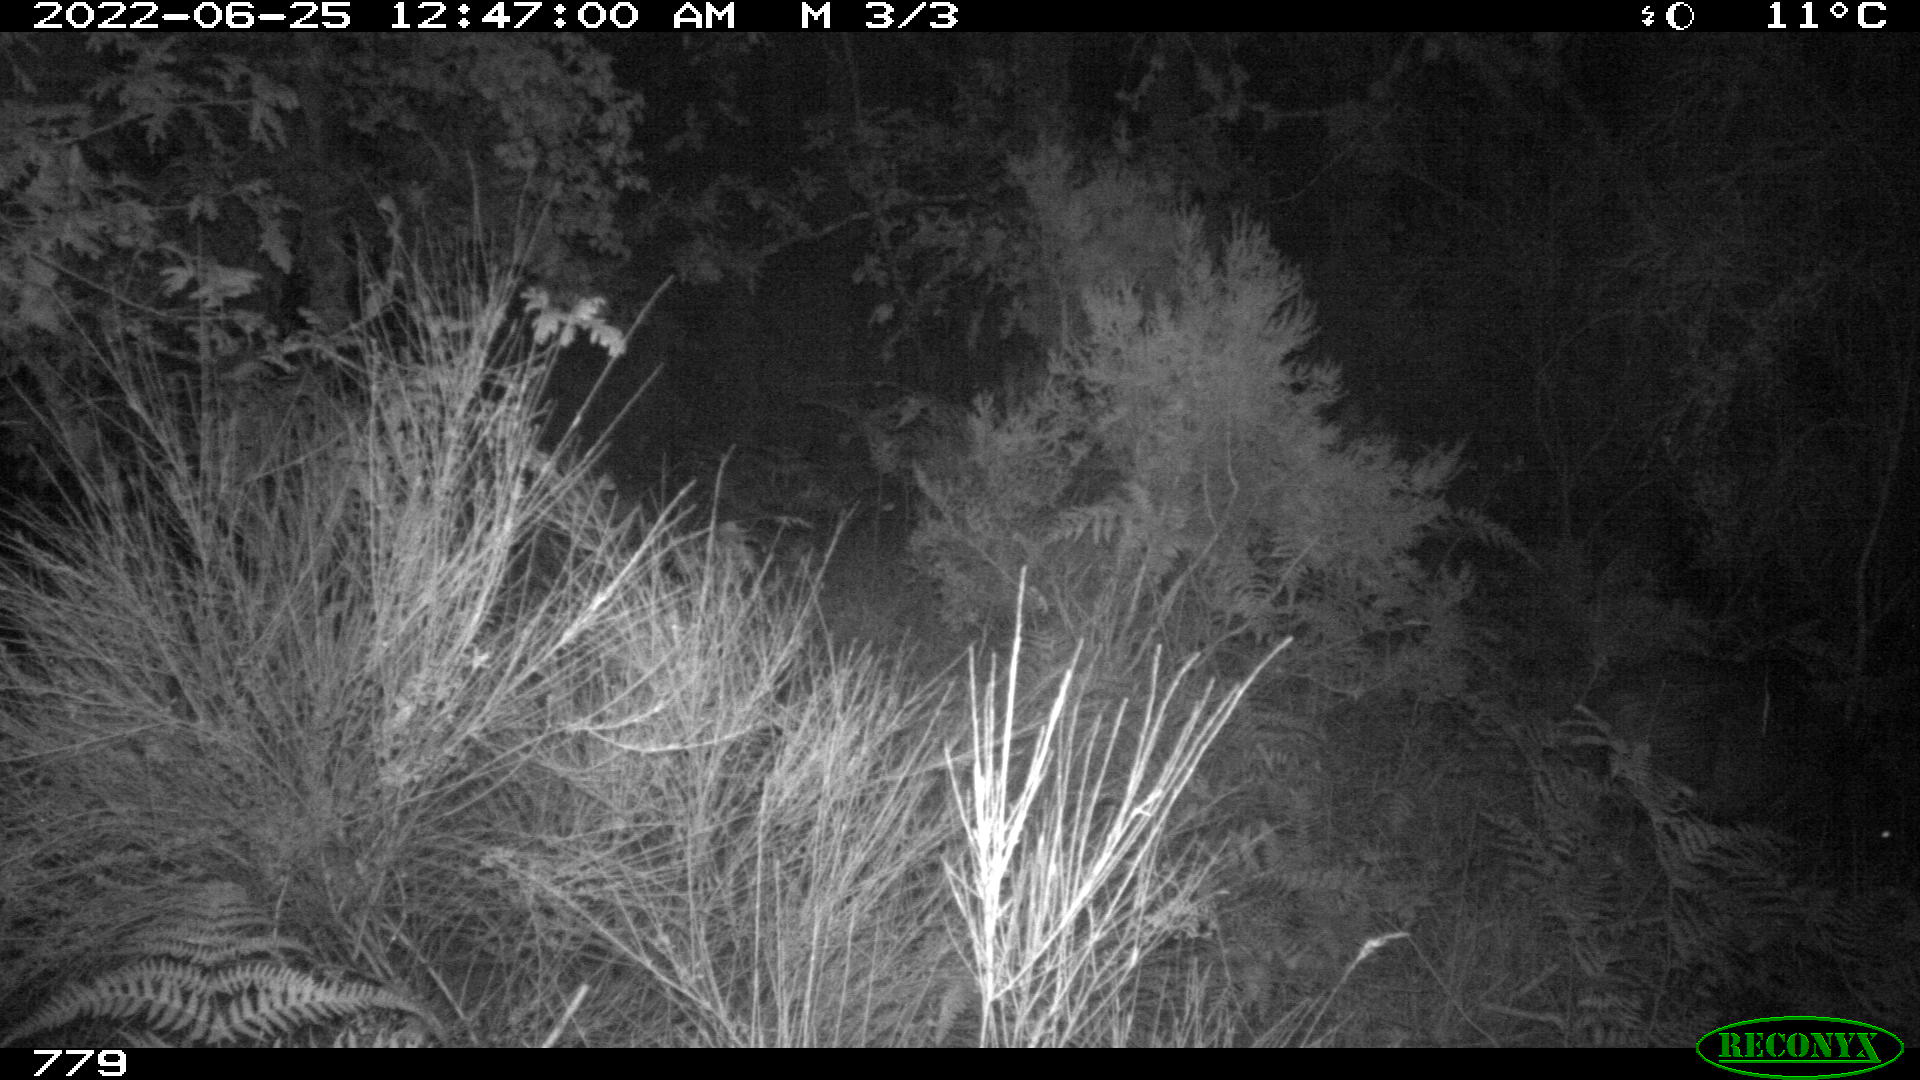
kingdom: Animalia
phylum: Chordata
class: Mammalia
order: Artiodactyla
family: Suidae
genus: Sus
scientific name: Sus scrofa
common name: Wild boar
